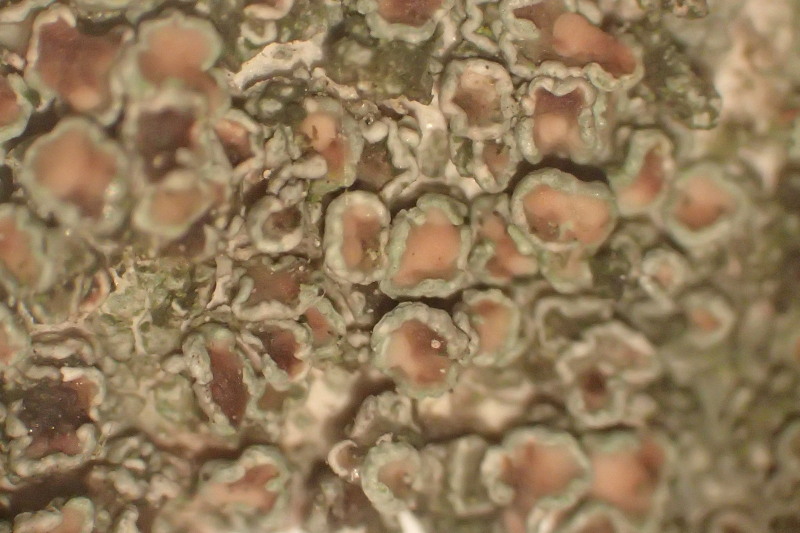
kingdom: Fungi
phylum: Ascomycota
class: Lecanoromycetes
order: Lecanorales
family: Lecanoraceae
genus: Lecanora
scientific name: Lecanora chlarotera
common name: brun kantskivelav
